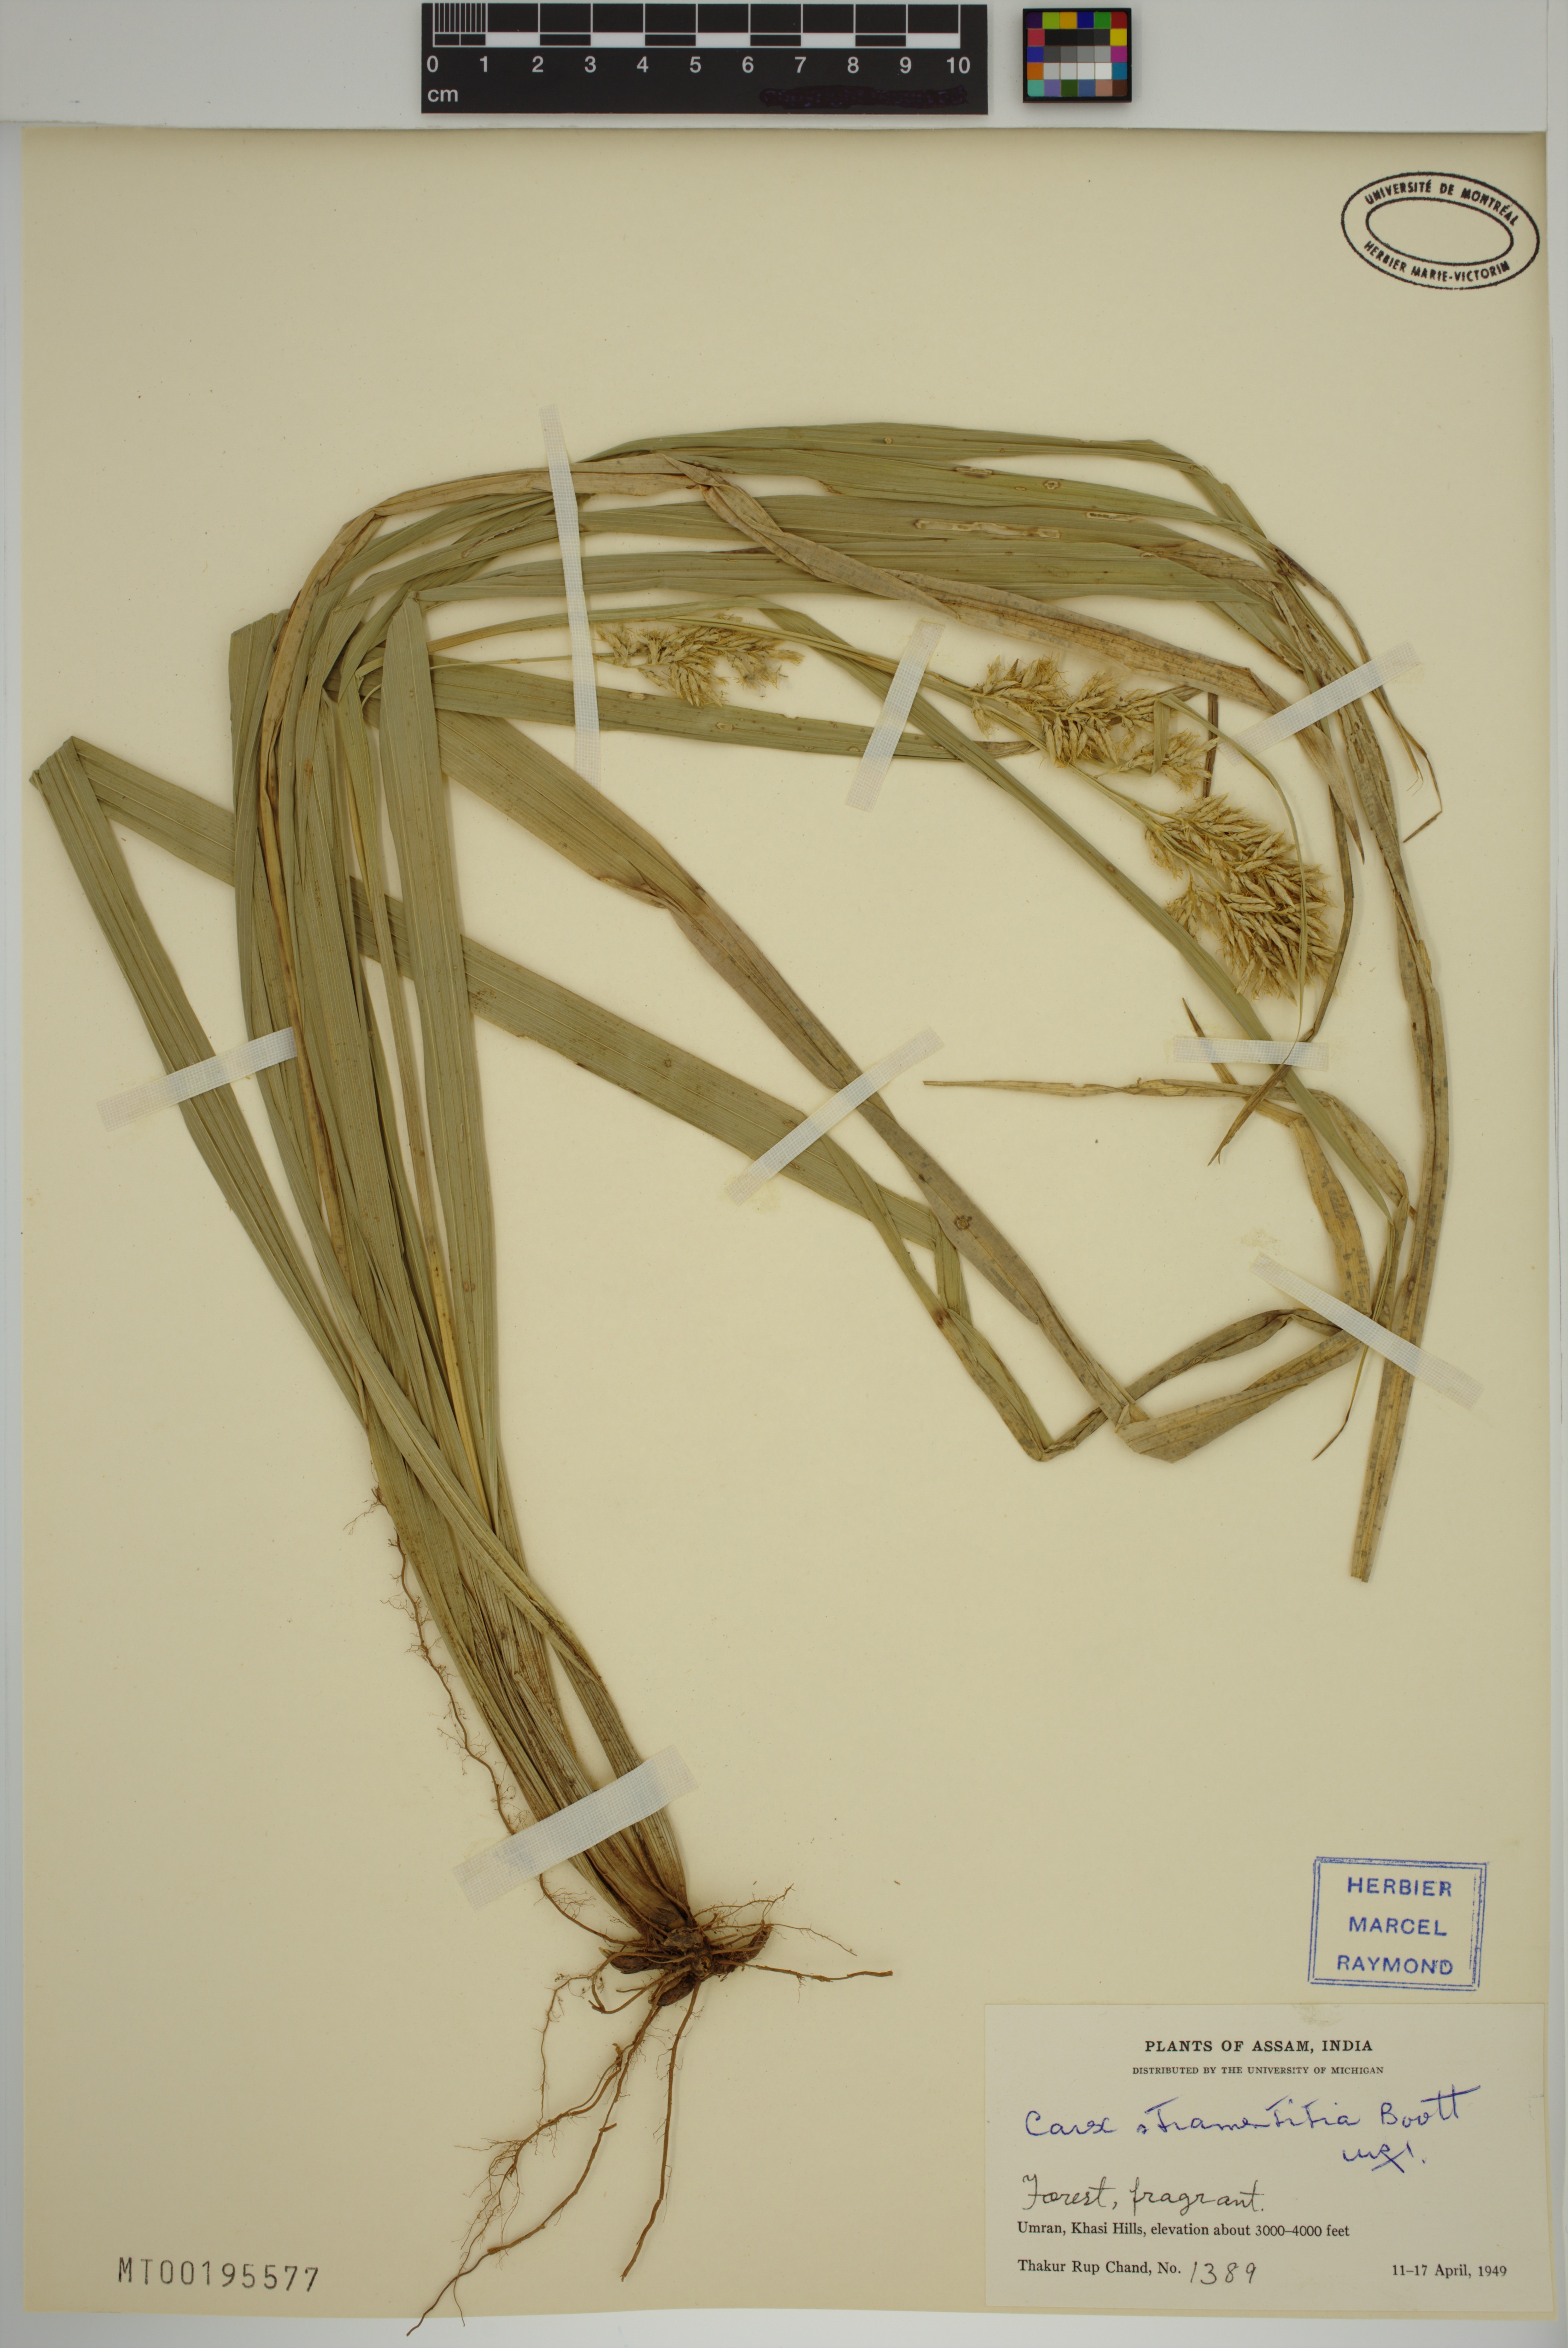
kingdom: Plantae
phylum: Tracheophyta
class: Liliopsida
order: Poales
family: Cyperaceae
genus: Carex
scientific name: Carex stramentitia
